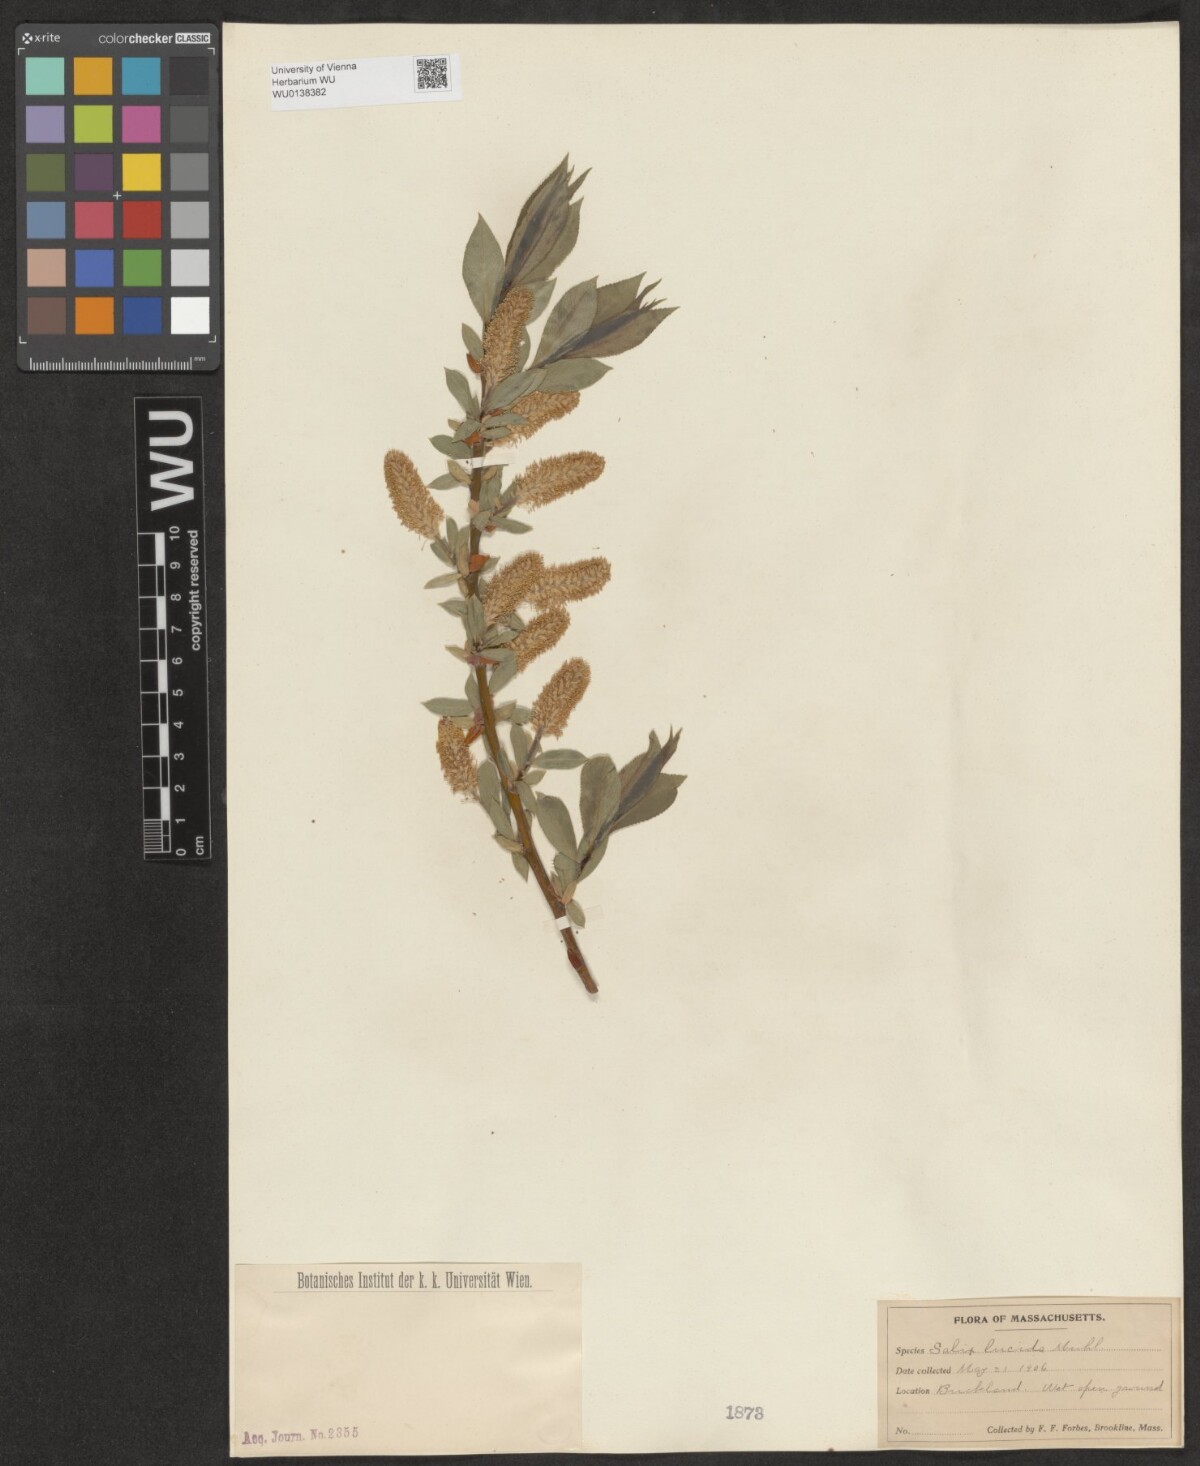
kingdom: Plantae
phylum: Tracheophyta
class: Magnoliopsida
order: Malpighiales
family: Salicaceae
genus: Salix
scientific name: Salix lucida
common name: Shining willow
